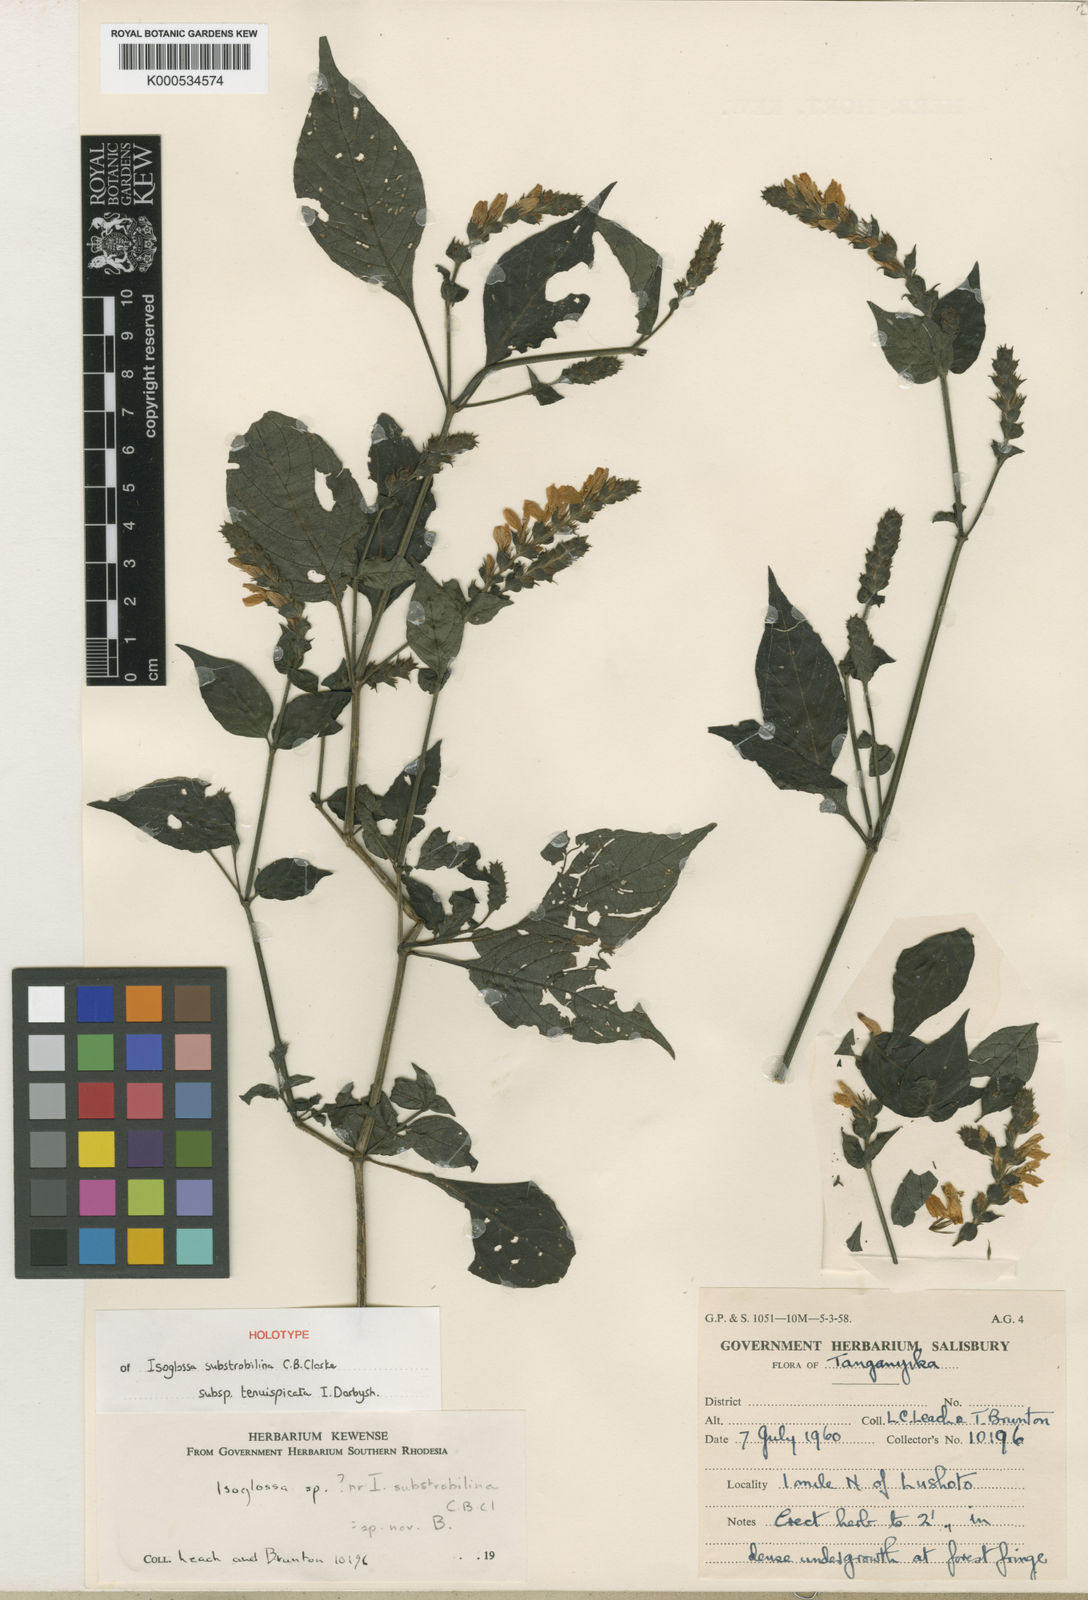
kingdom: Plantae
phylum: Tracheophyta
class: Magnoliopsida
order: Lamiales
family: Acanthaceae
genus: Isoglossa
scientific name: Isoglossa substrobilina
